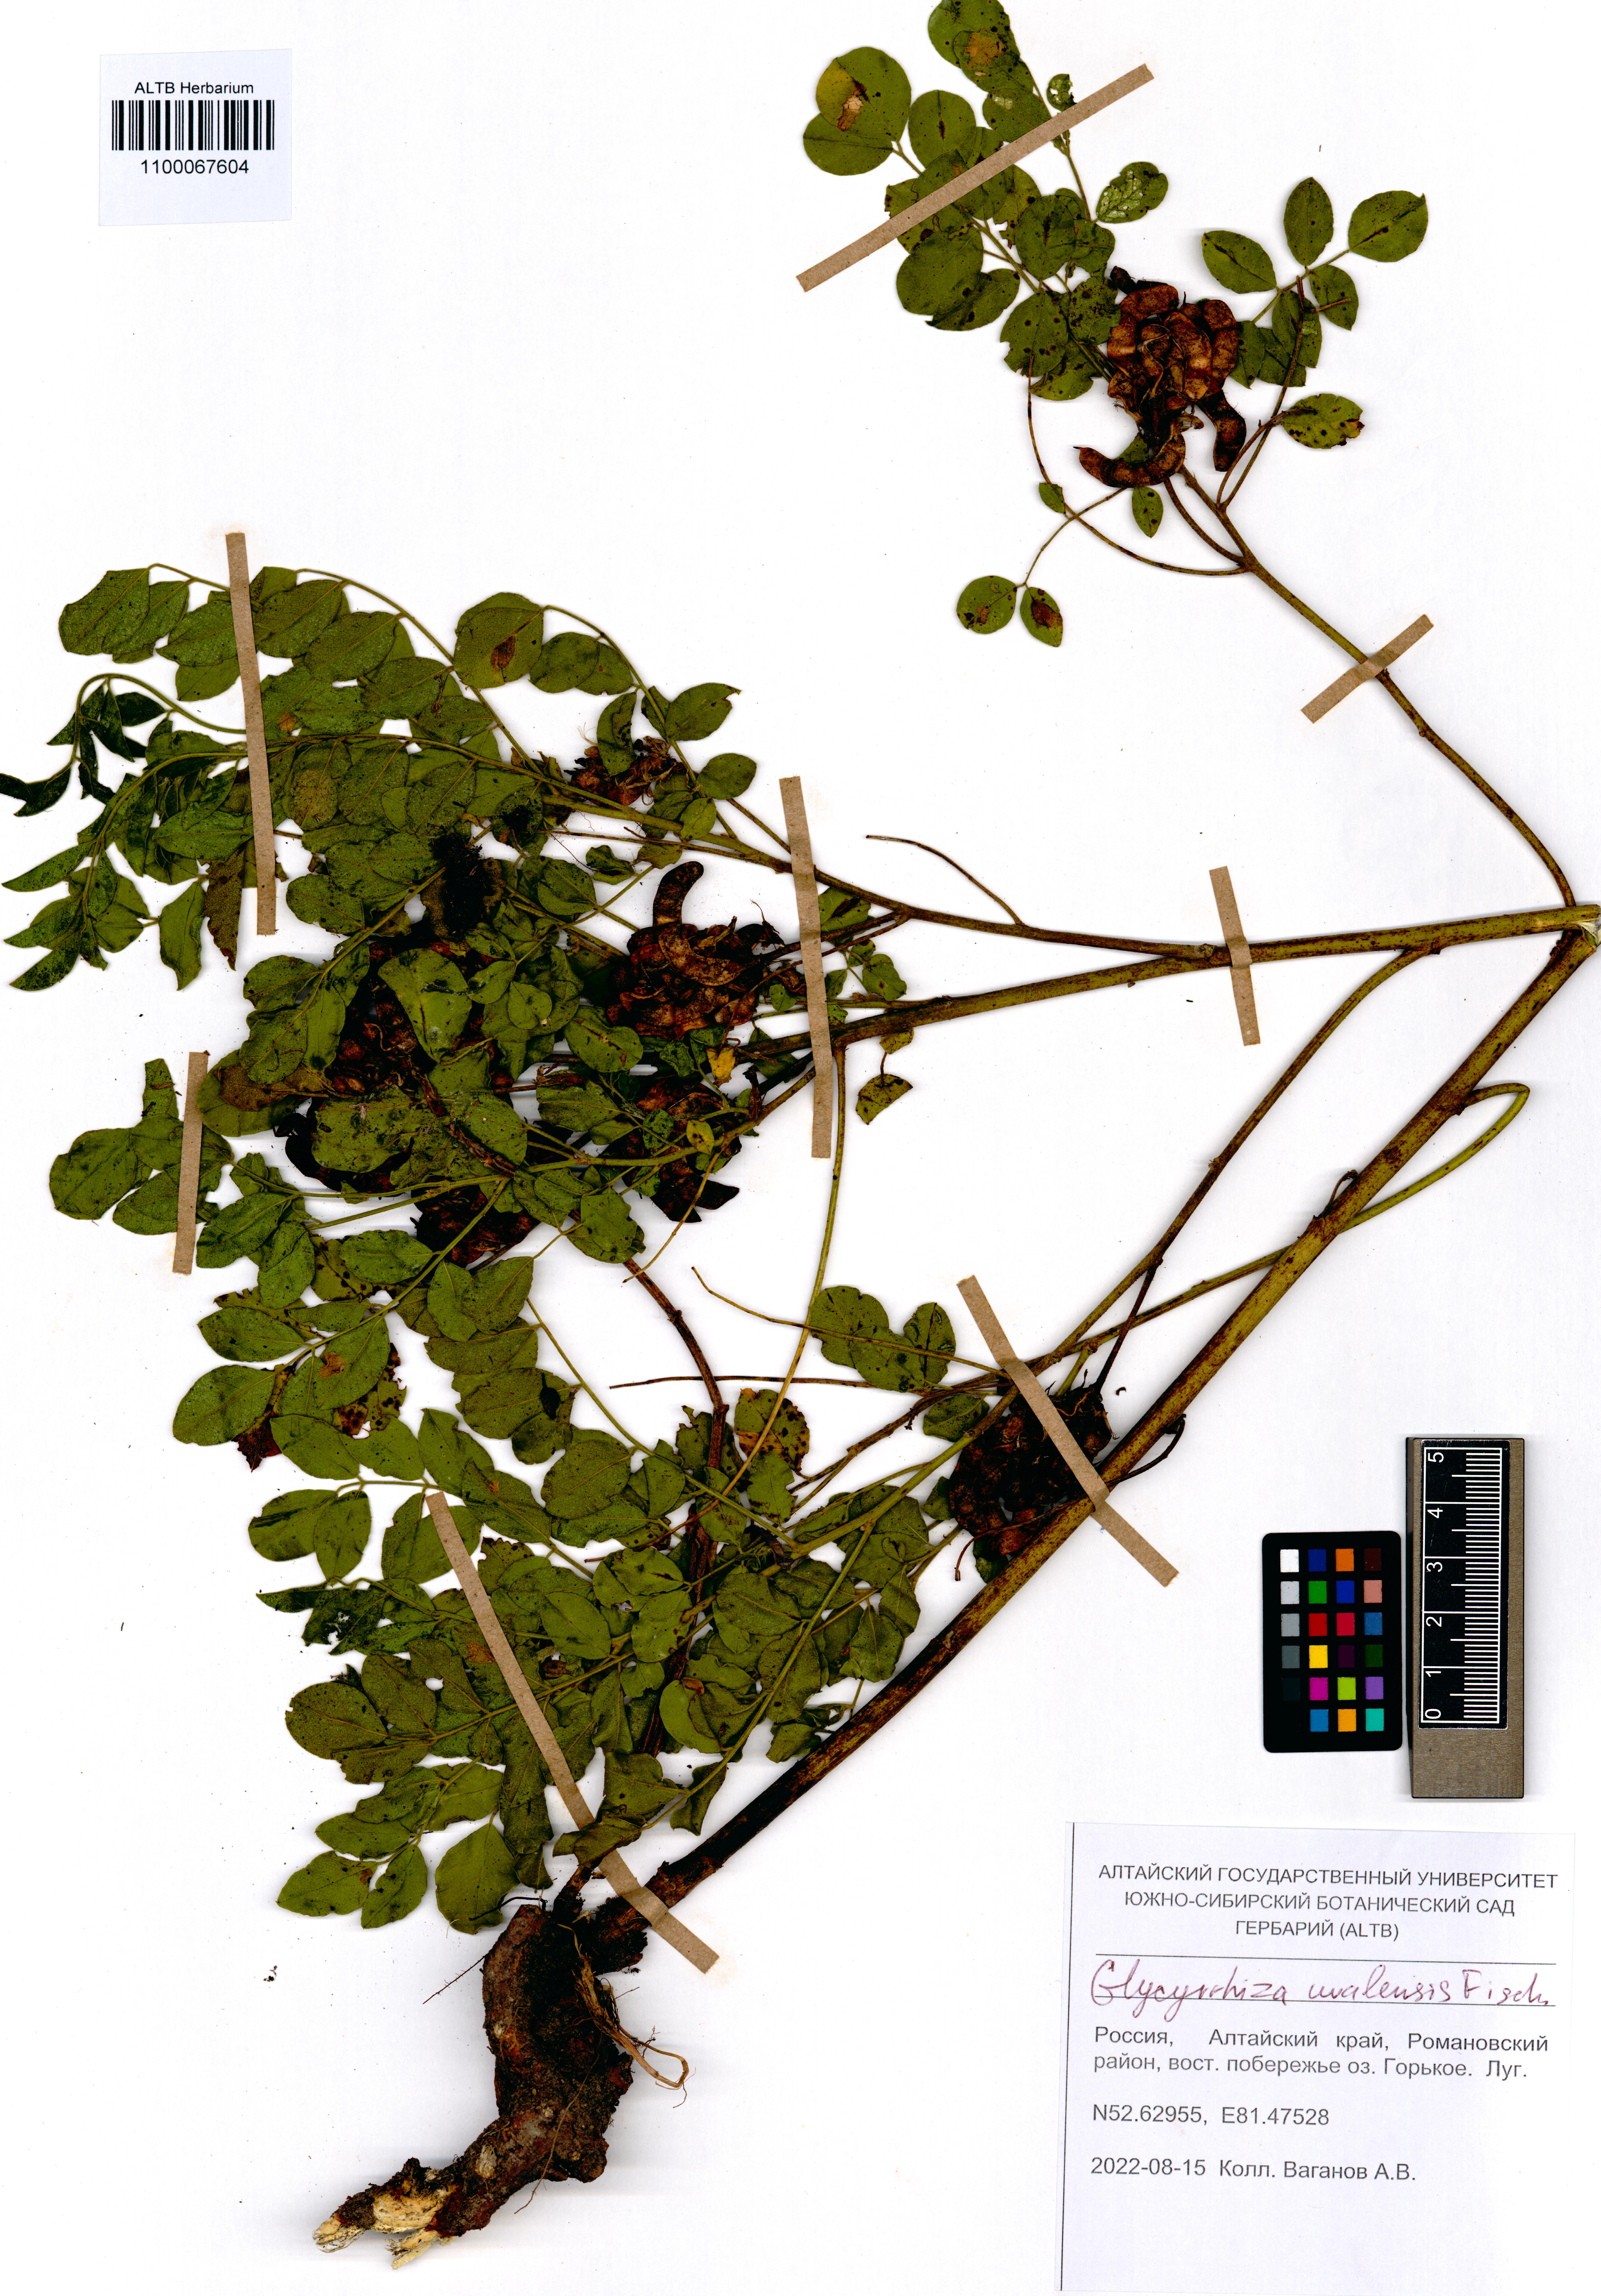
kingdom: Plantae
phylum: Tracheophyta
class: Magnoliopsida
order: Fabales
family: Fabaceae
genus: Glycyrrhiza
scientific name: Glycyrrhiza uralensis
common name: Chinese licorice
